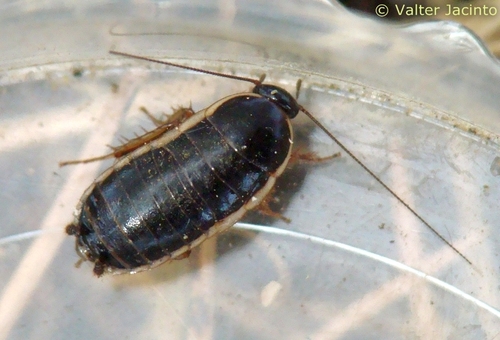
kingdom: Animalia
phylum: Arthropoda
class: Insecta
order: Blattodea
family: Ectobiidae
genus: Loboptera
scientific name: Loboptera decipiens
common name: Lobe-winged cockroach
